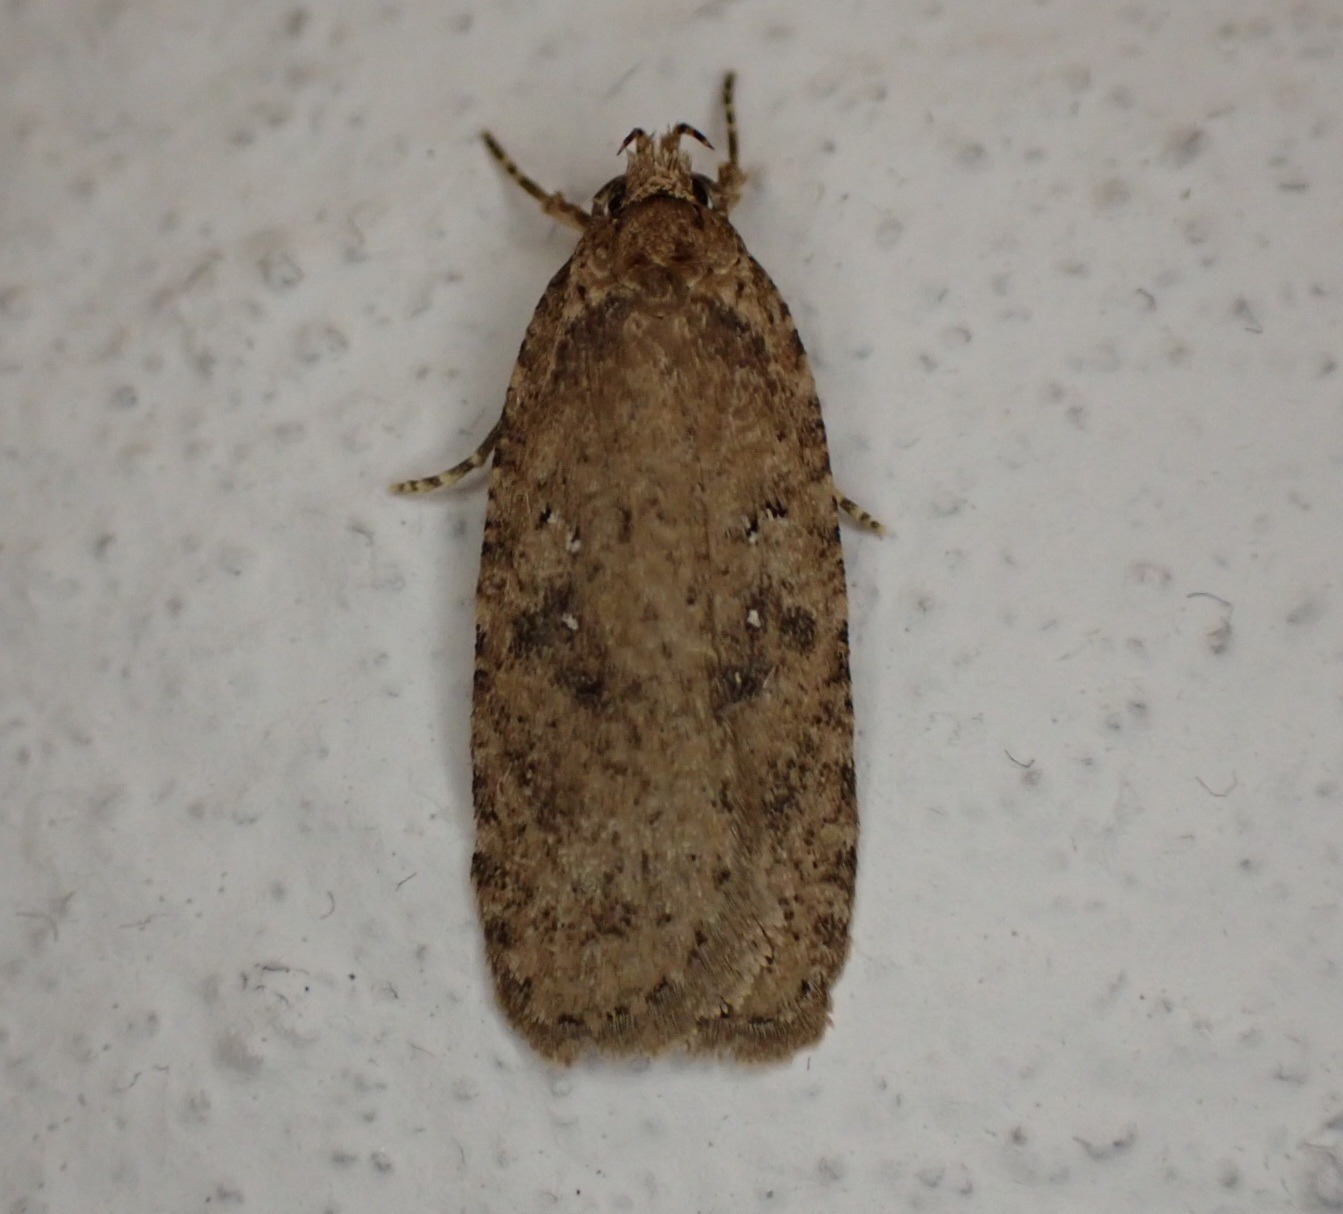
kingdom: Animalia
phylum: Arthropoda
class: Insecta
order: Lepidoptera
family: Depressariidae
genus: Agonopterix
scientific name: Agonopterix heracliana
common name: Almindelig fladmøl
